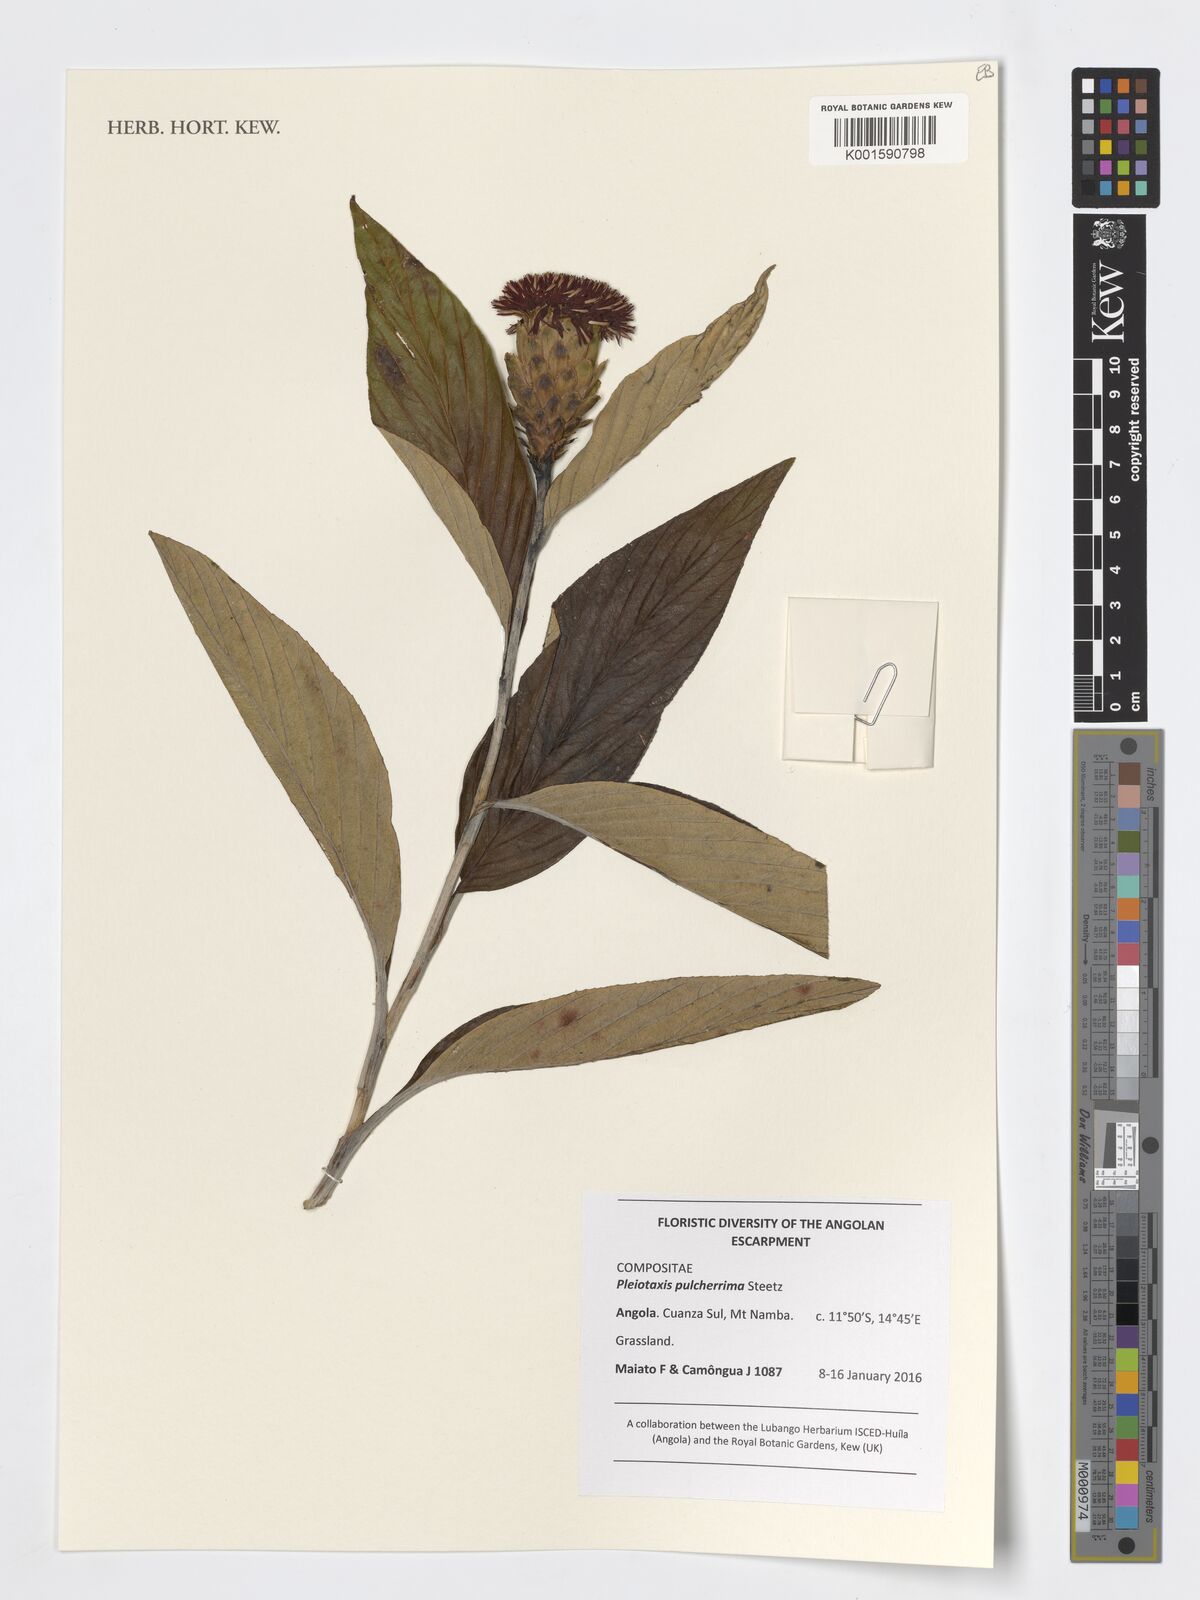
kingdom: Plantae
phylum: Tracheophyta
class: Magnoliopsida
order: Asterales
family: Asteraceae
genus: Pleiotaxis
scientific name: Pleiotaxis pulcherrima
